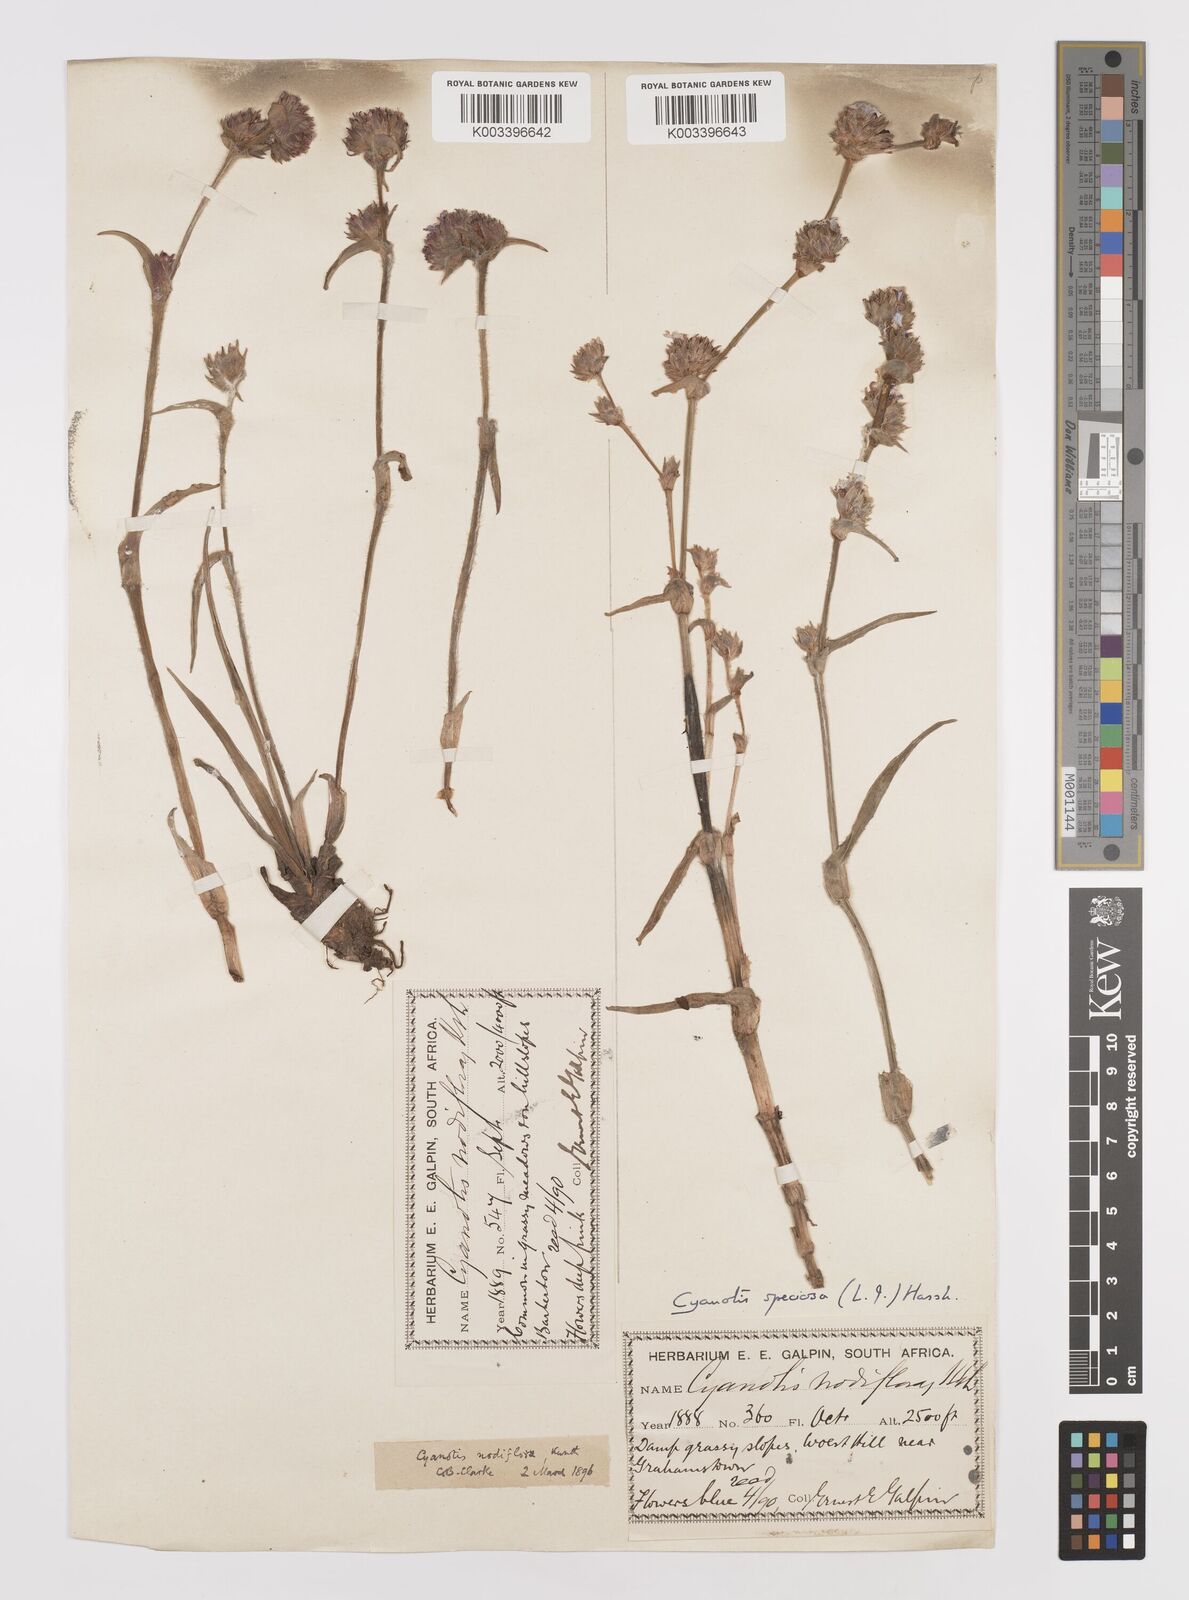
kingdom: Plantae
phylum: Tracheophyta
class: Liliopsida
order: Commelinales
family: Commelinaceae
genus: Cyanotis
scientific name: Cyanotis speciosa
